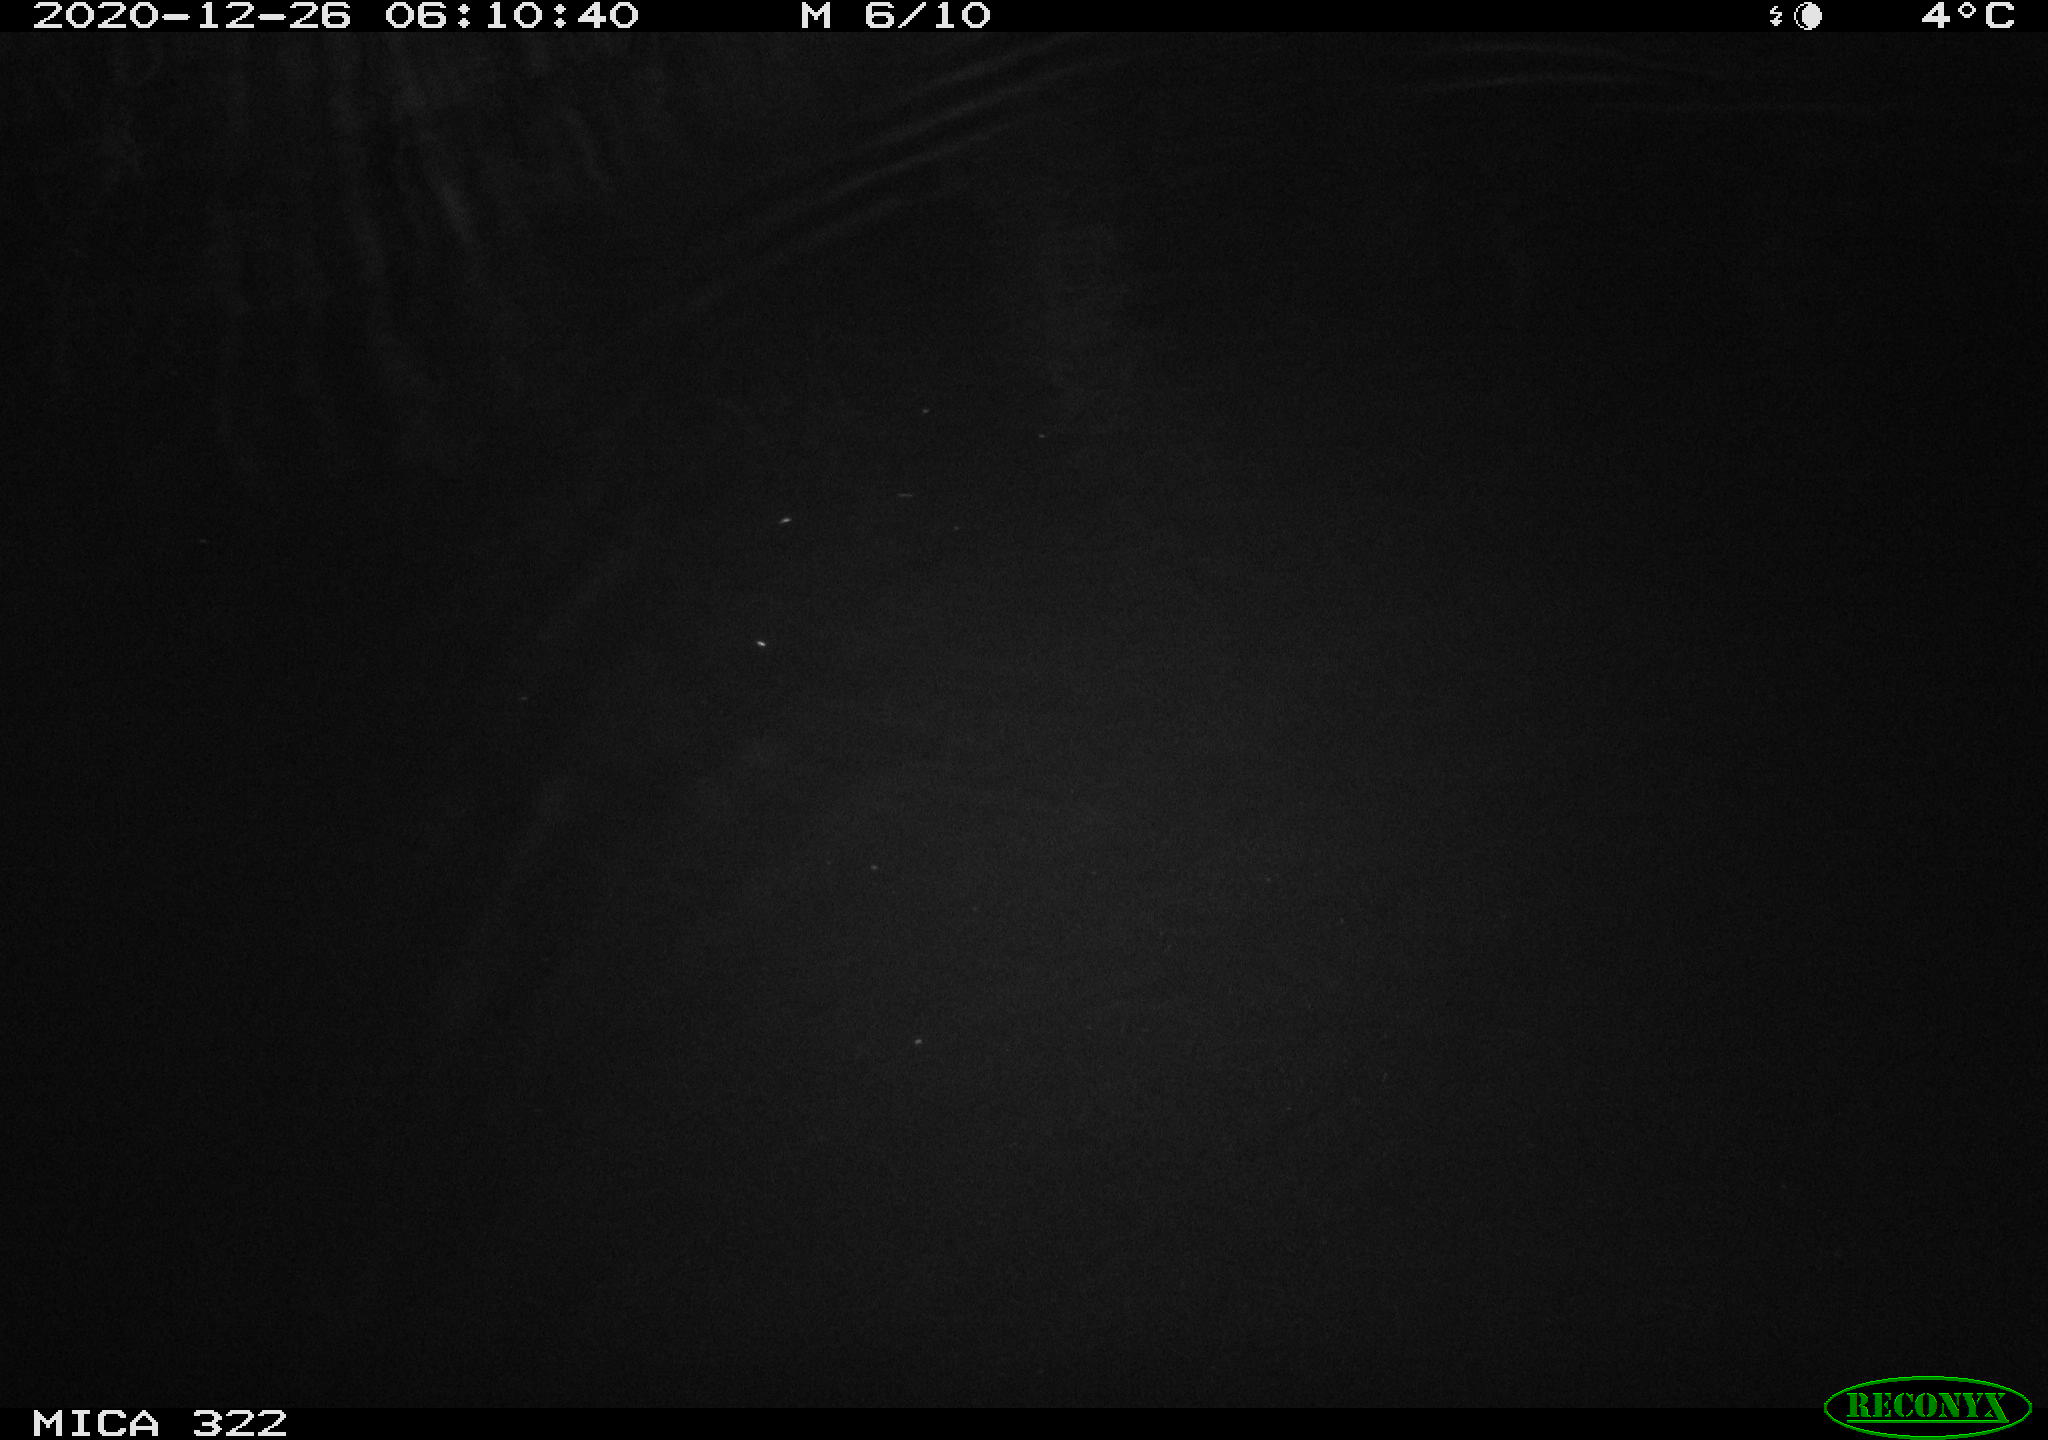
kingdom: Animalia
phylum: Chordata
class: Mammalia
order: Rodentia
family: Muridae
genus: Rattus
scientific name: Rattus norvegicus
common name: Brown rat
